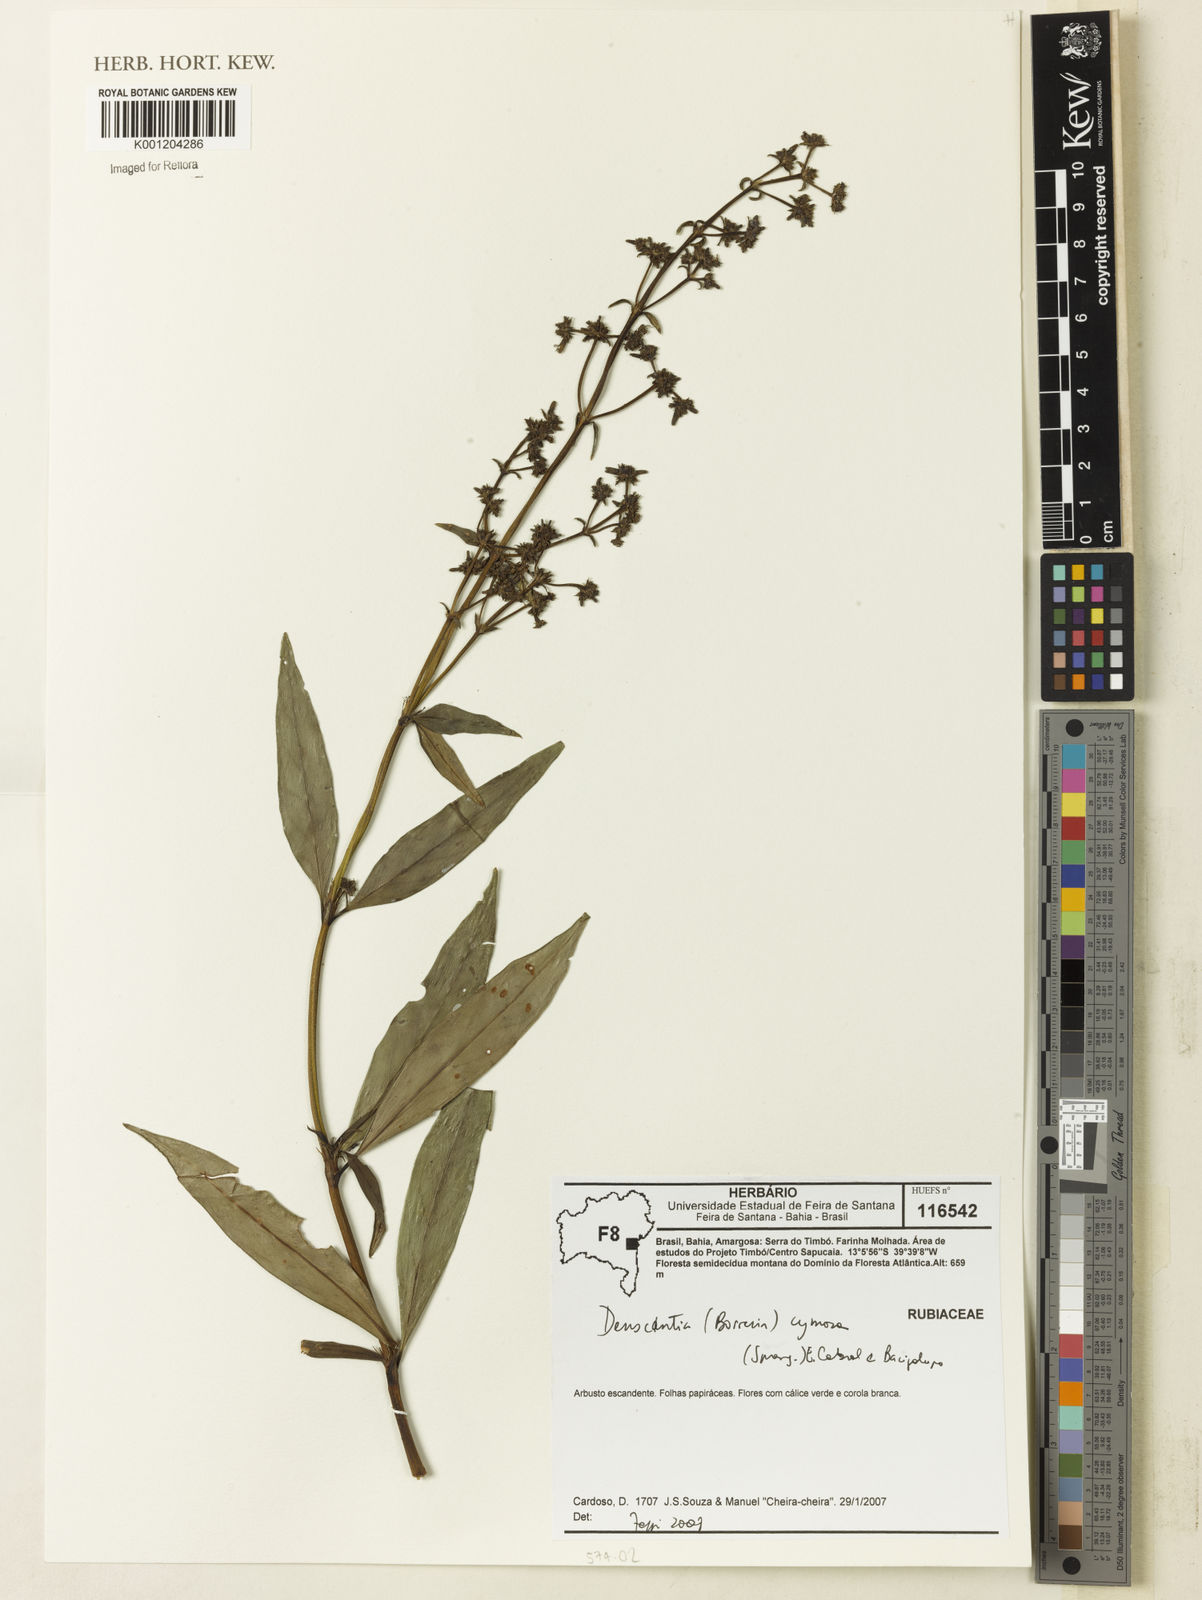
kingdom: Plantae
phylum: Tracheophyta
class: Magnoliopsida
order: Gentianales
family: Rubiaceae
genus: Denscantia
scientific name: Denscantia cymosa
